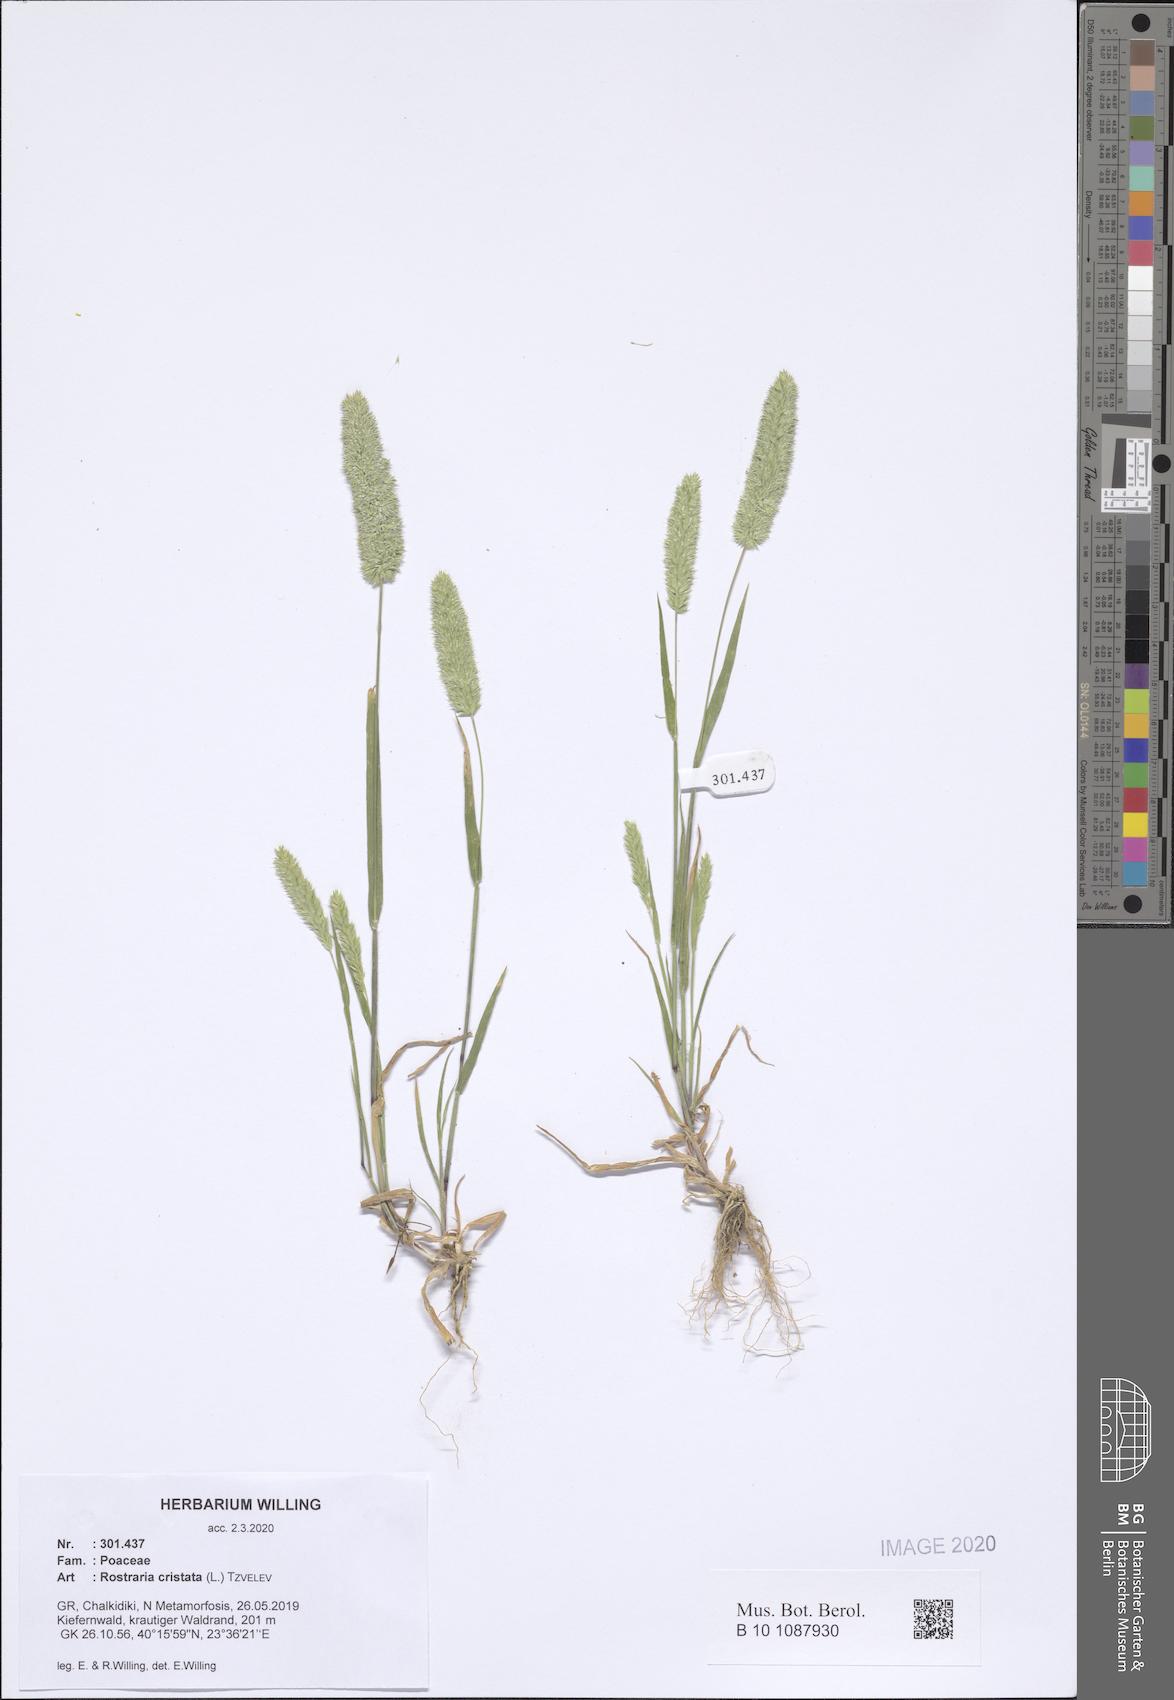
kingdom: Plantae
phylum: Tracheophyta
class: Liliopsida
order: Poales
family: Poaceae
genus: Rostraria
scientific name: Rostraria cristata
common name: Mediterranean hair-grass
